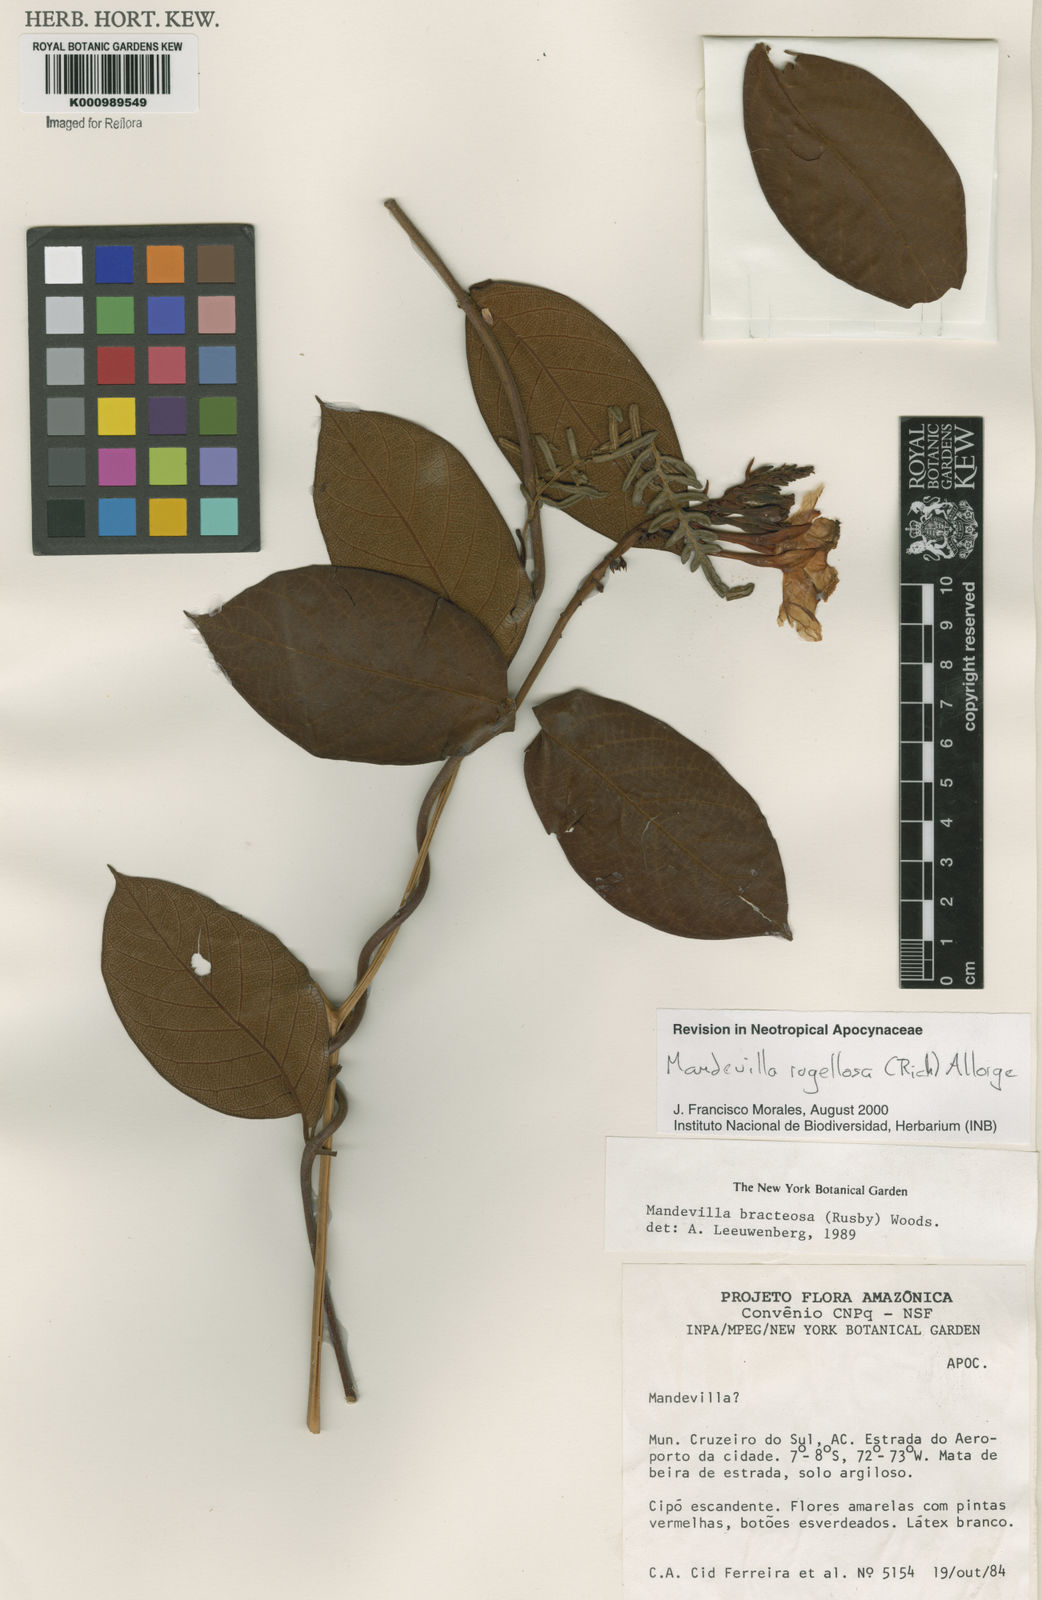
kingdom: Plantae
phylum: Tracheophyta
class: Magnoliopsida
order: Gentianales
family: Apocynaceae
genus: Mandevilla
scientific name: Mandevilla rugellosa
